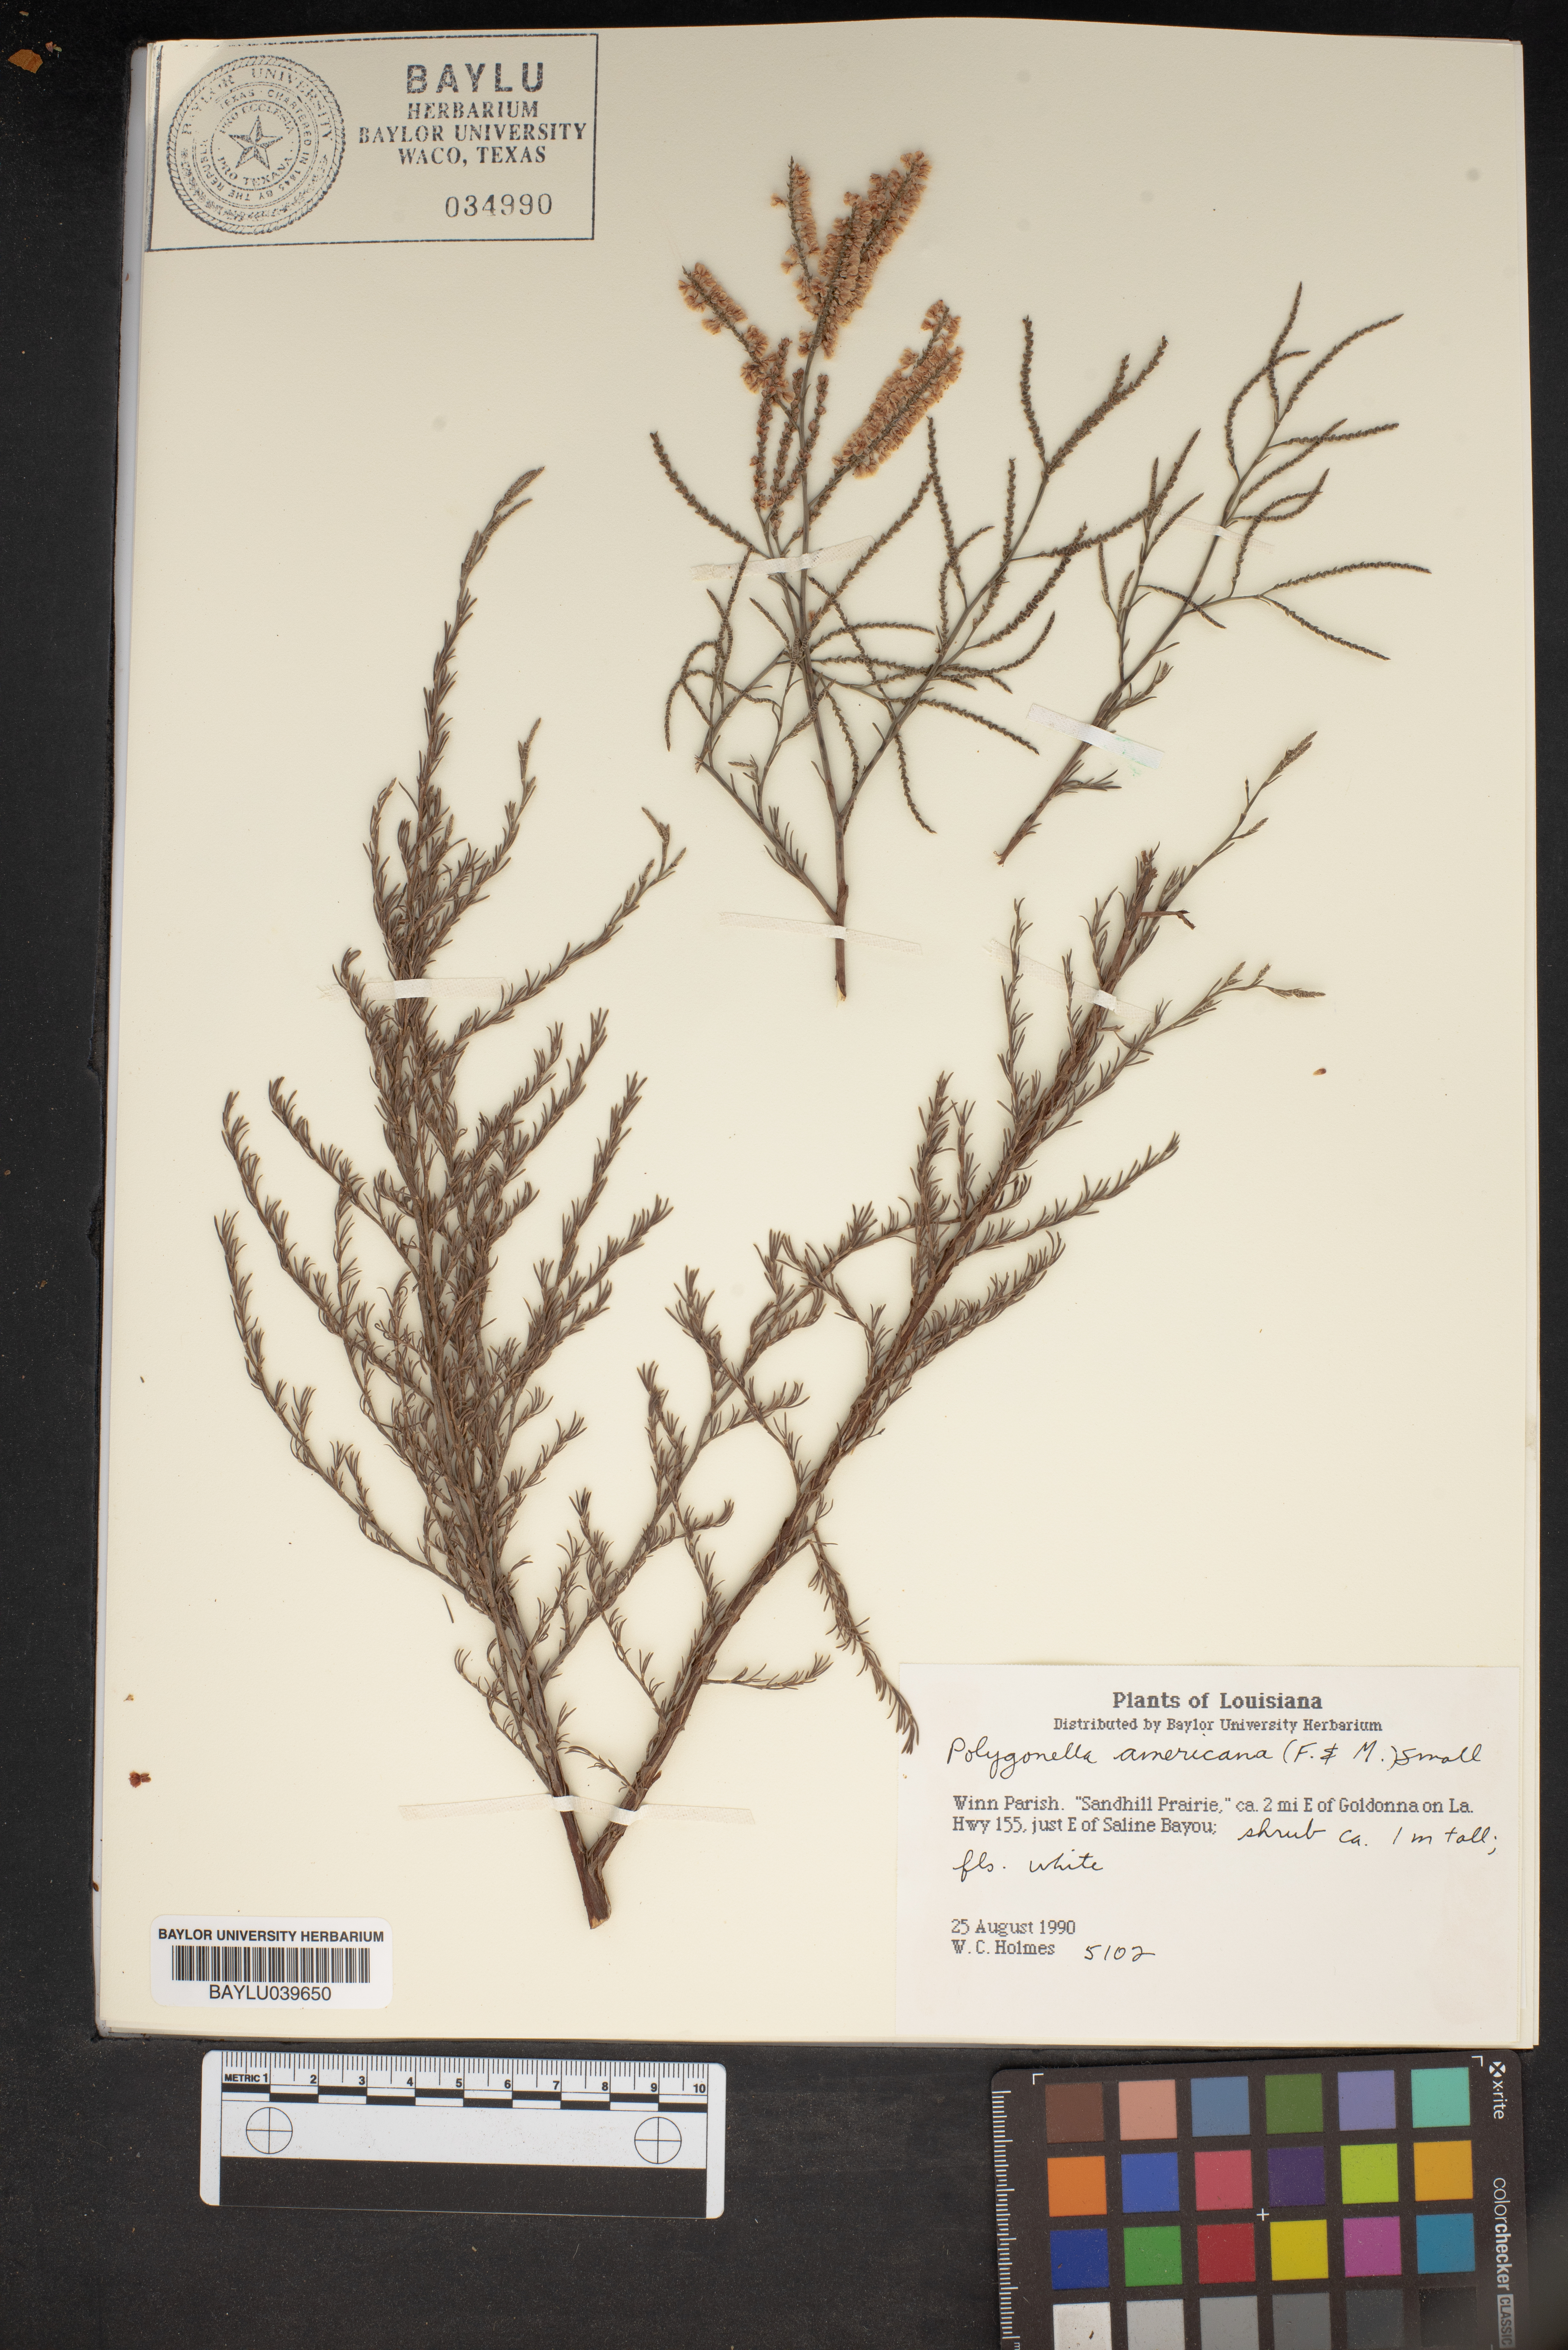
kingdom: Plantae
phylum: Tracheophyta
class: Magnoliopsida
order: Caryophyllales
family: Polygonaceae
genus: Polygonella
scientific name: Polygonella americana
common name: Southern jointweed
